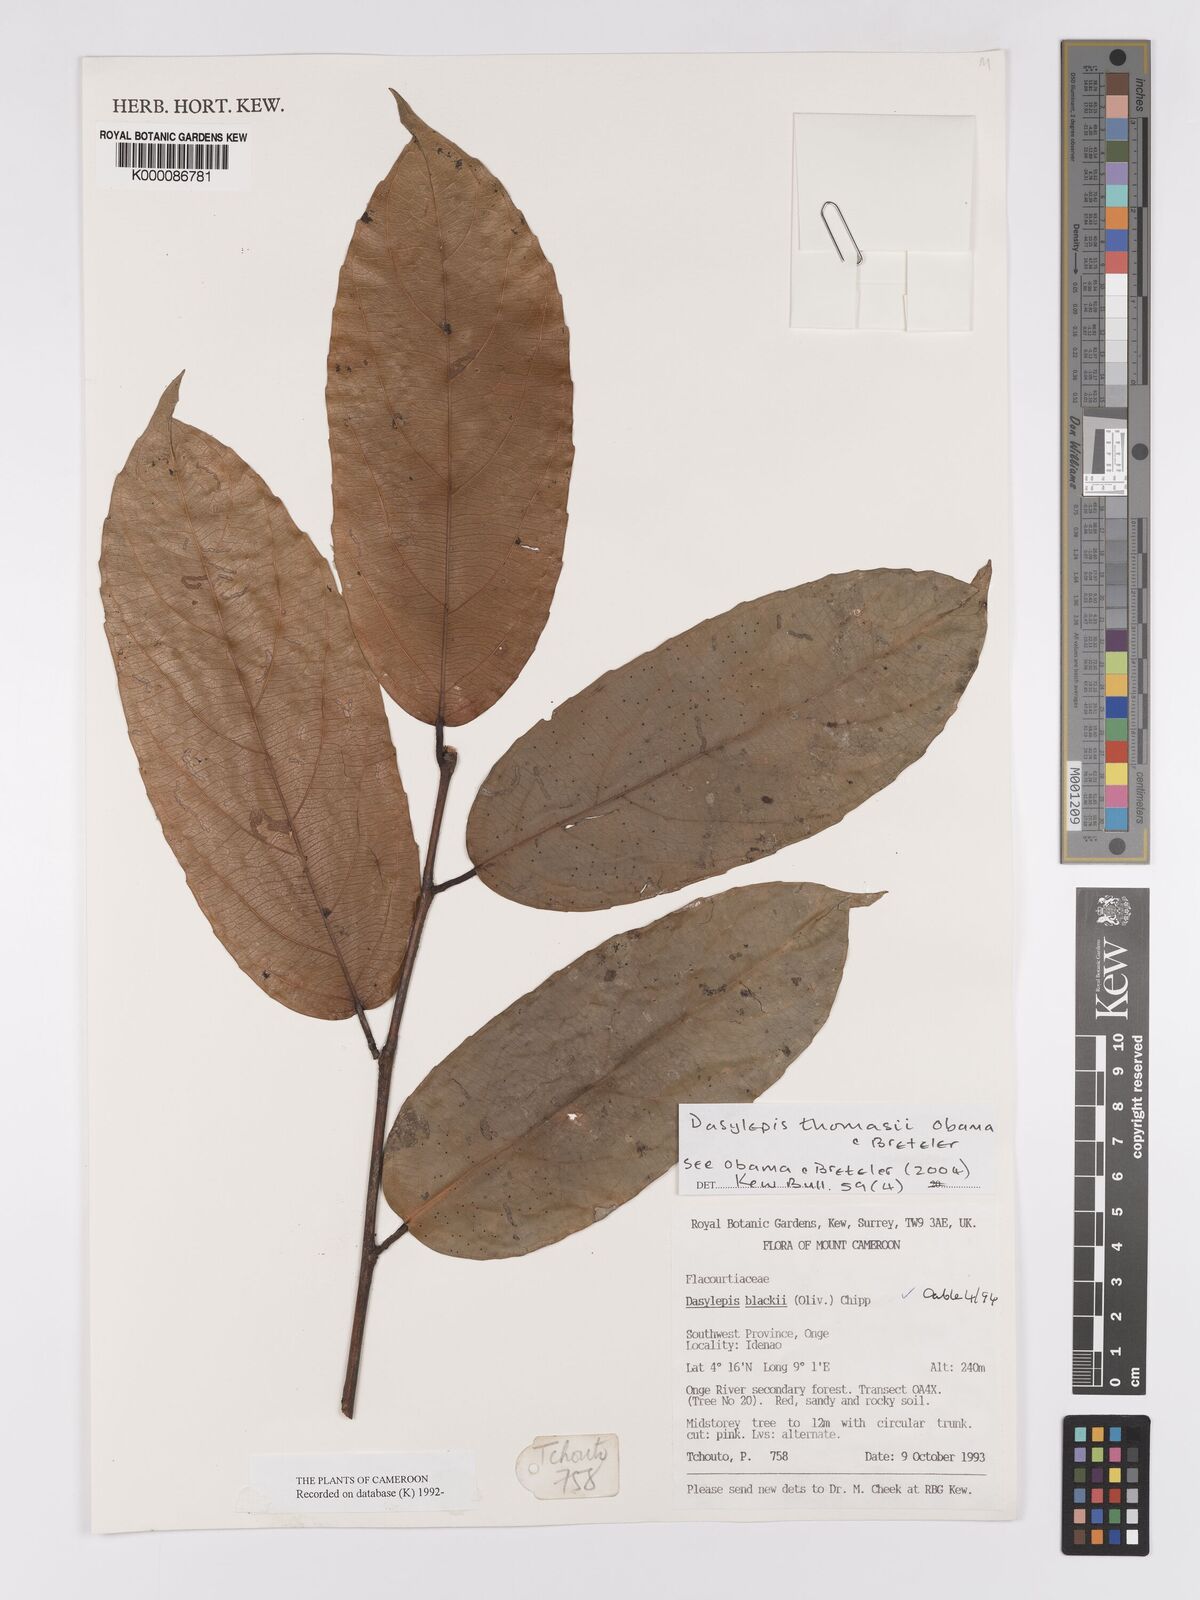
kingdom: Plantae
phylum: Tracheophyta
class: Magnoliopsida
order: Malpighiales
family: Achariaceae
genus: Dasylepis
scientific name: Dasylepis blackii
